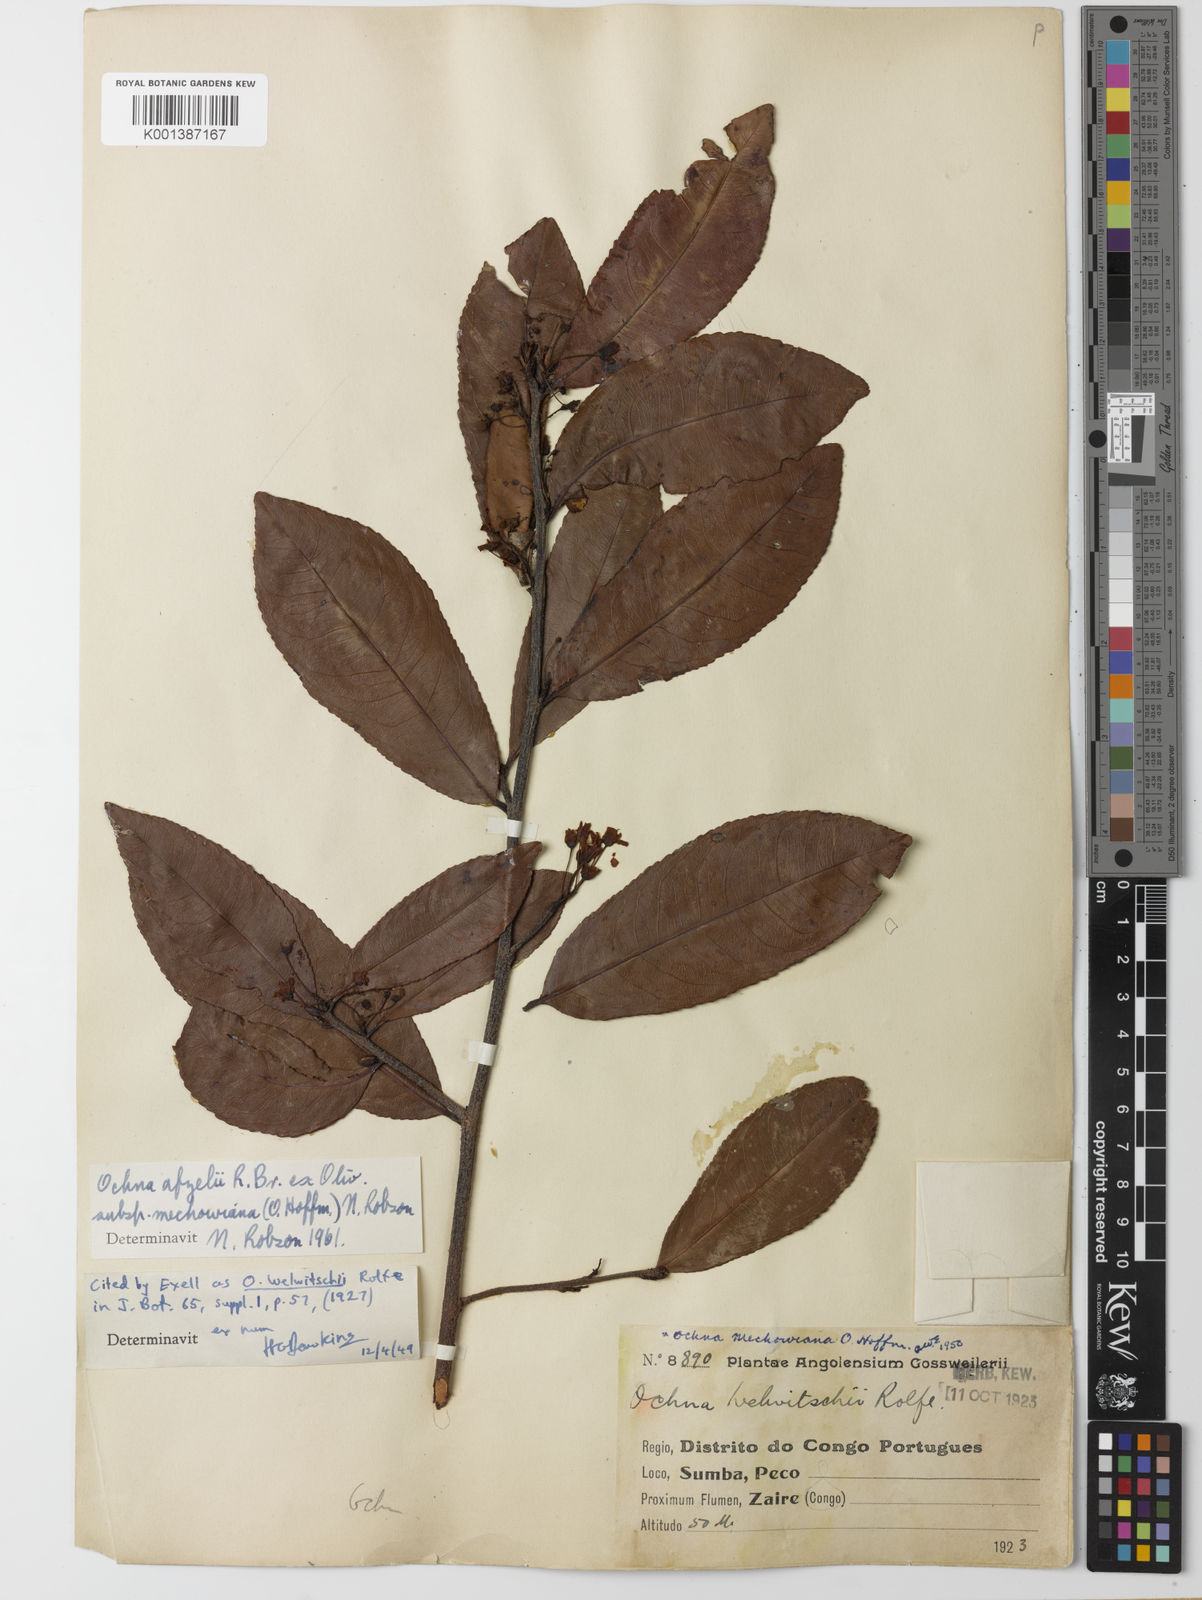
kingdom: Plantae
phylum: Tracheophyta
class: Magnoliopsida
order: Malpighiales
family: Ochnaceae
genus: Ochna
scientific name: Ochna
